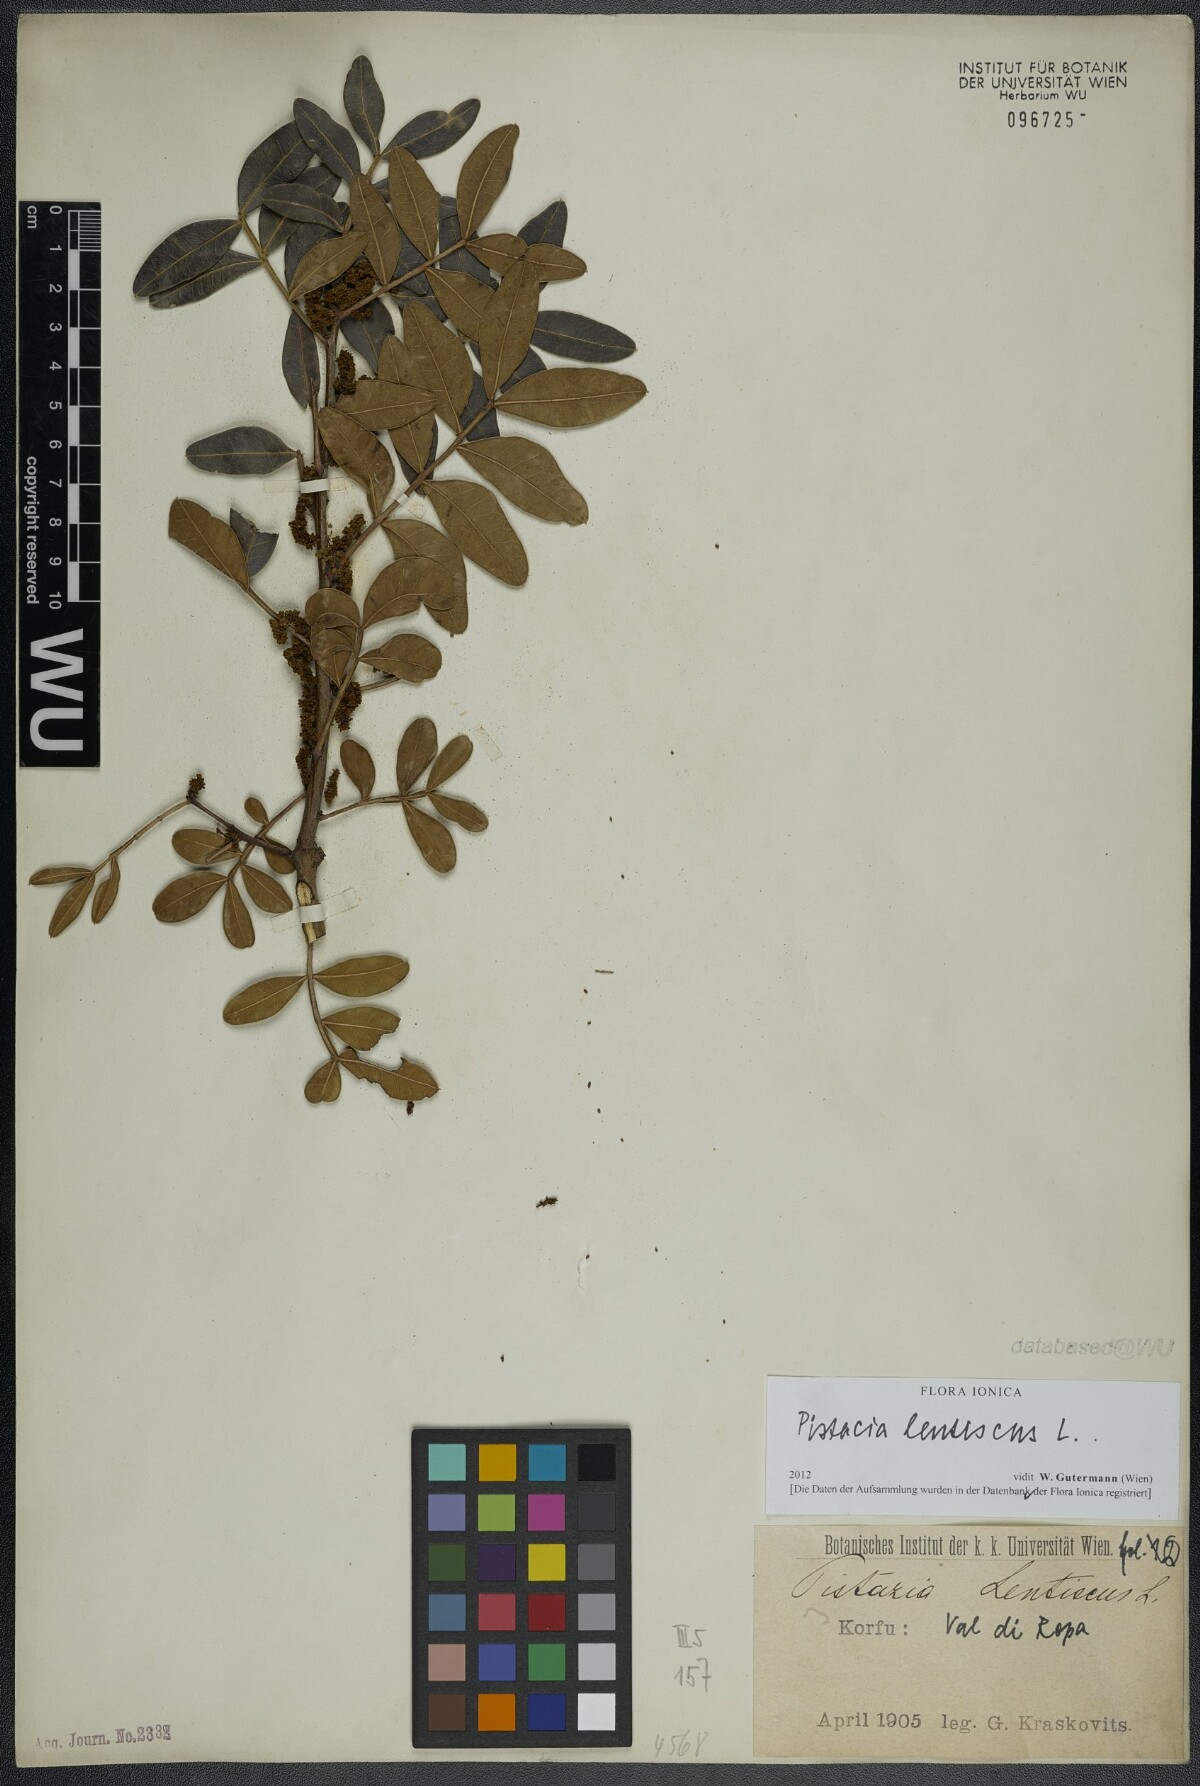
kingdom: Plantae
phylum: Tracheophyta
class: Magnoliopsida
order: Sapindales
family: Anacardiaceae
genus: Pistacia
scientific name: Pistacia lentiscus
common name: Lentisk
